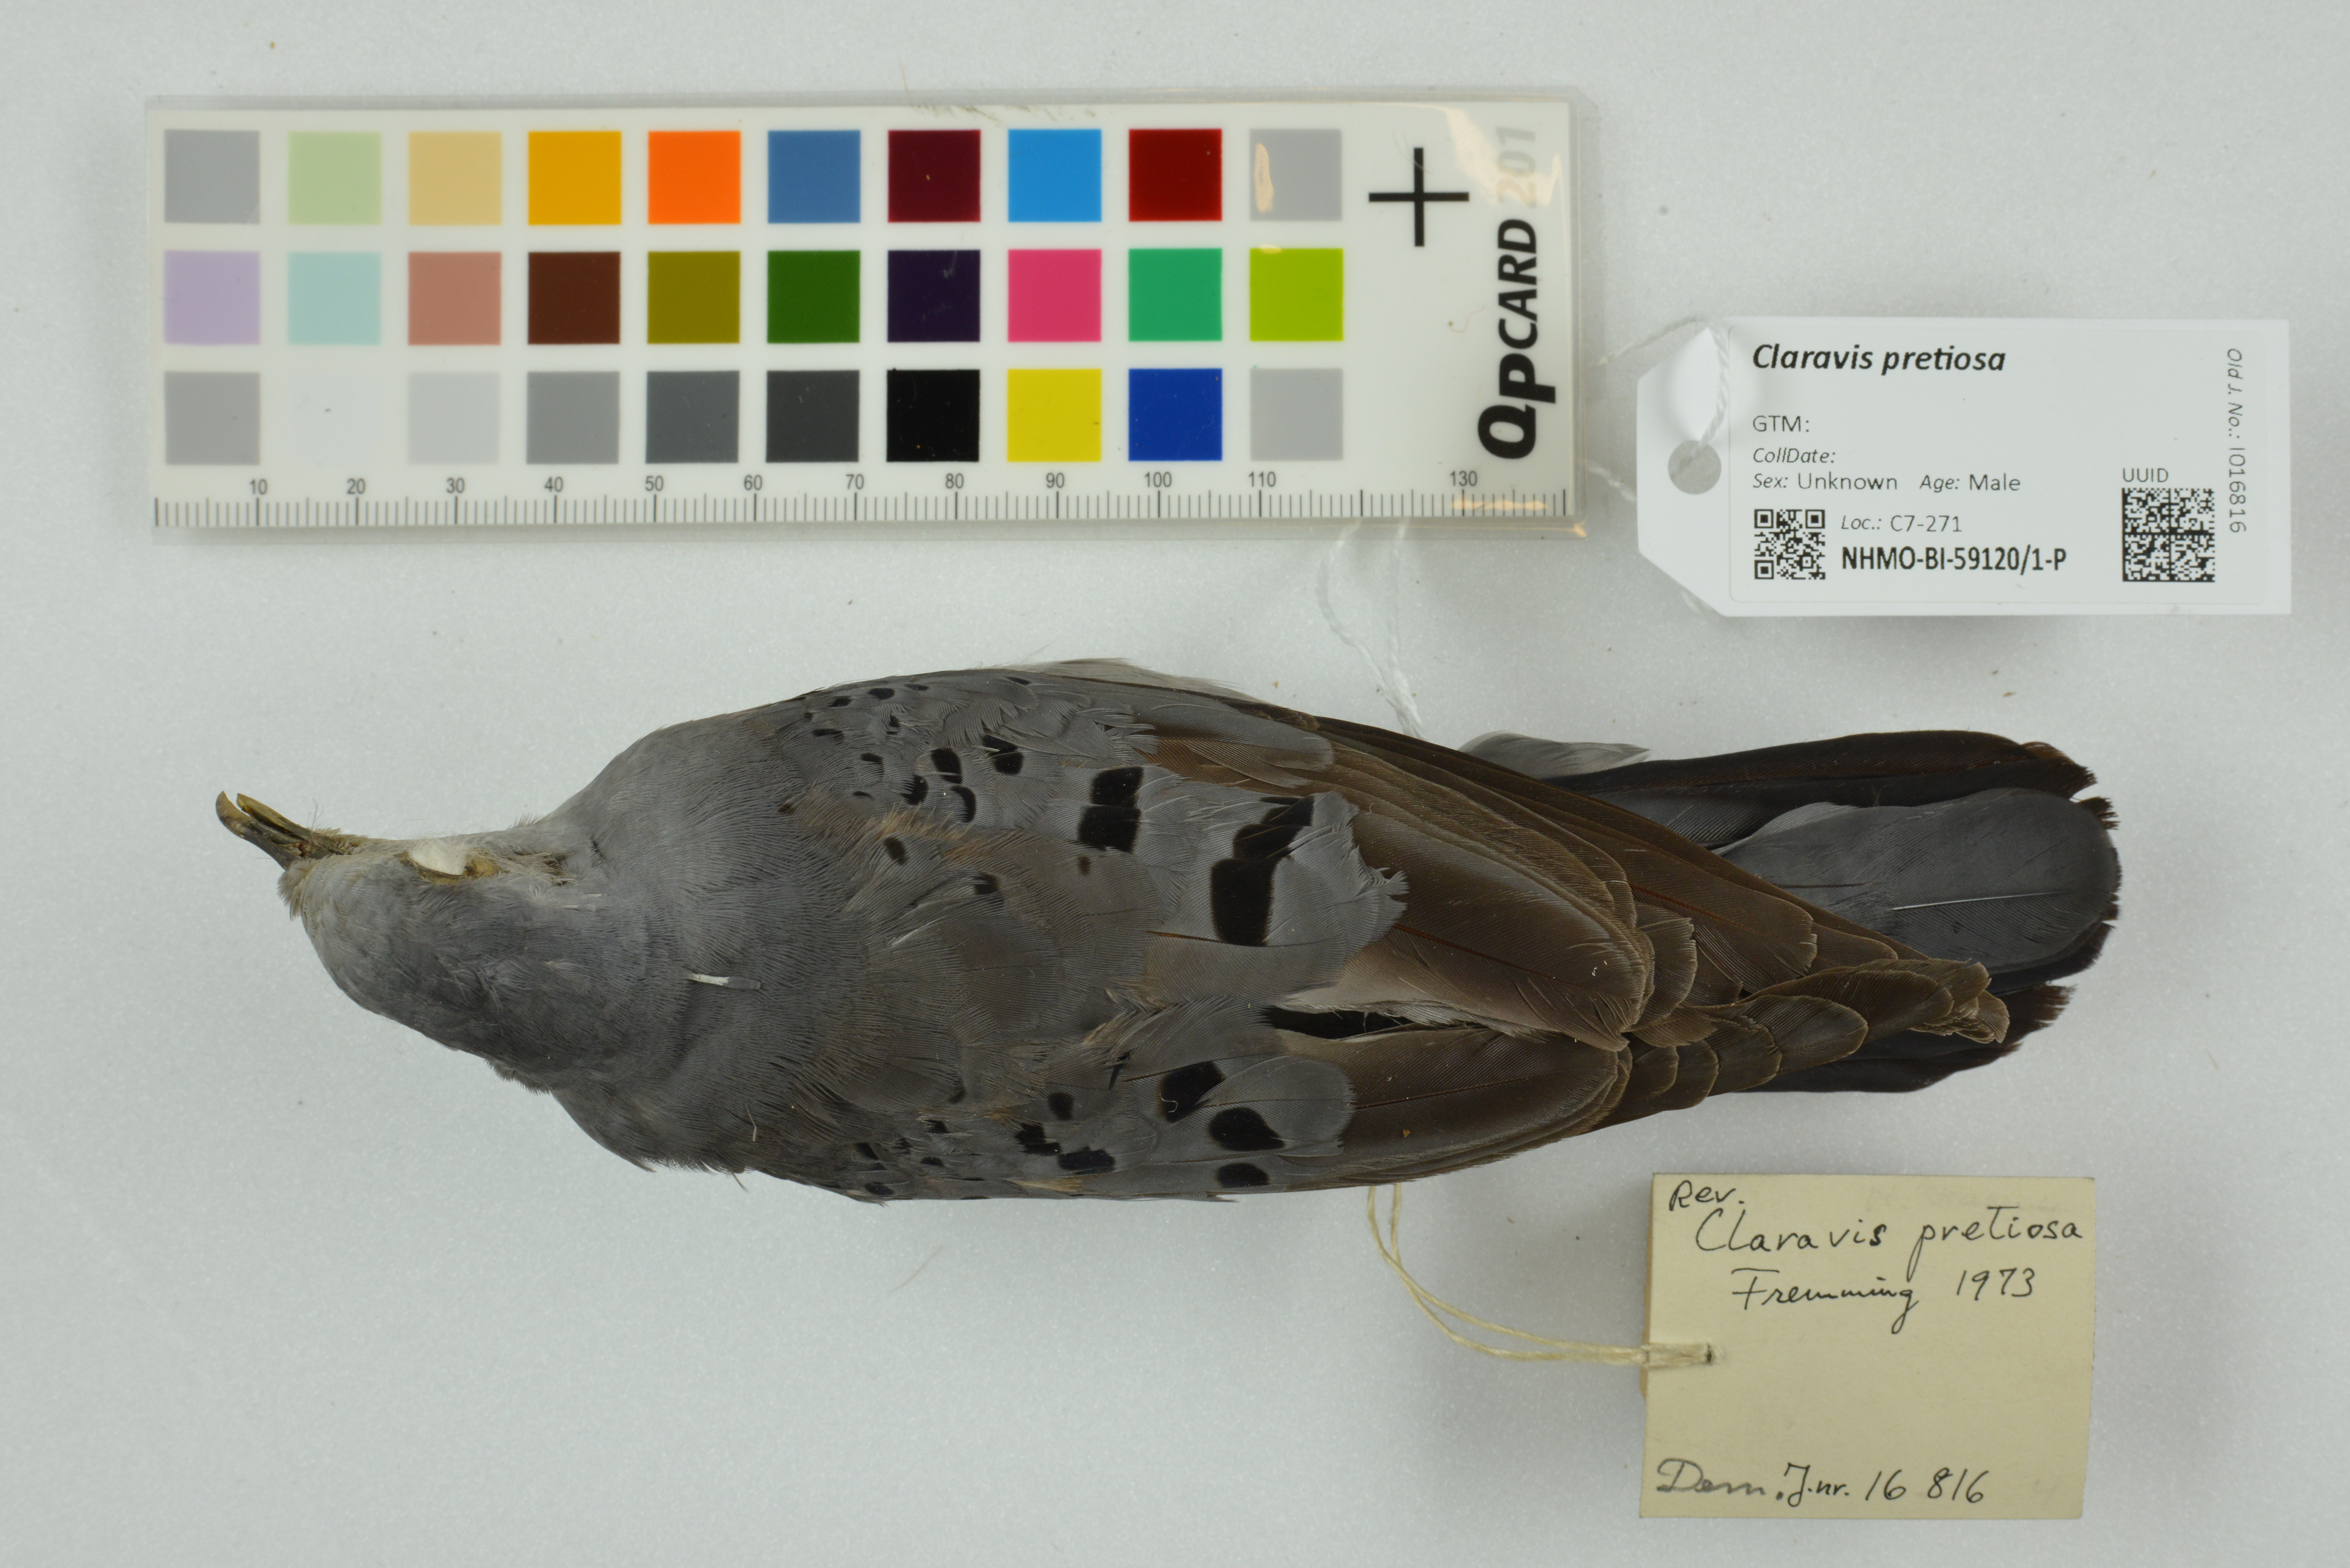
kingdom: Animalia
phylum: Chordata
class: Aves
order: Columbiformes
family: Columbidae
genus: Claravis
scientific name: Claravis pretiosa
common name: Blue ground-dove
